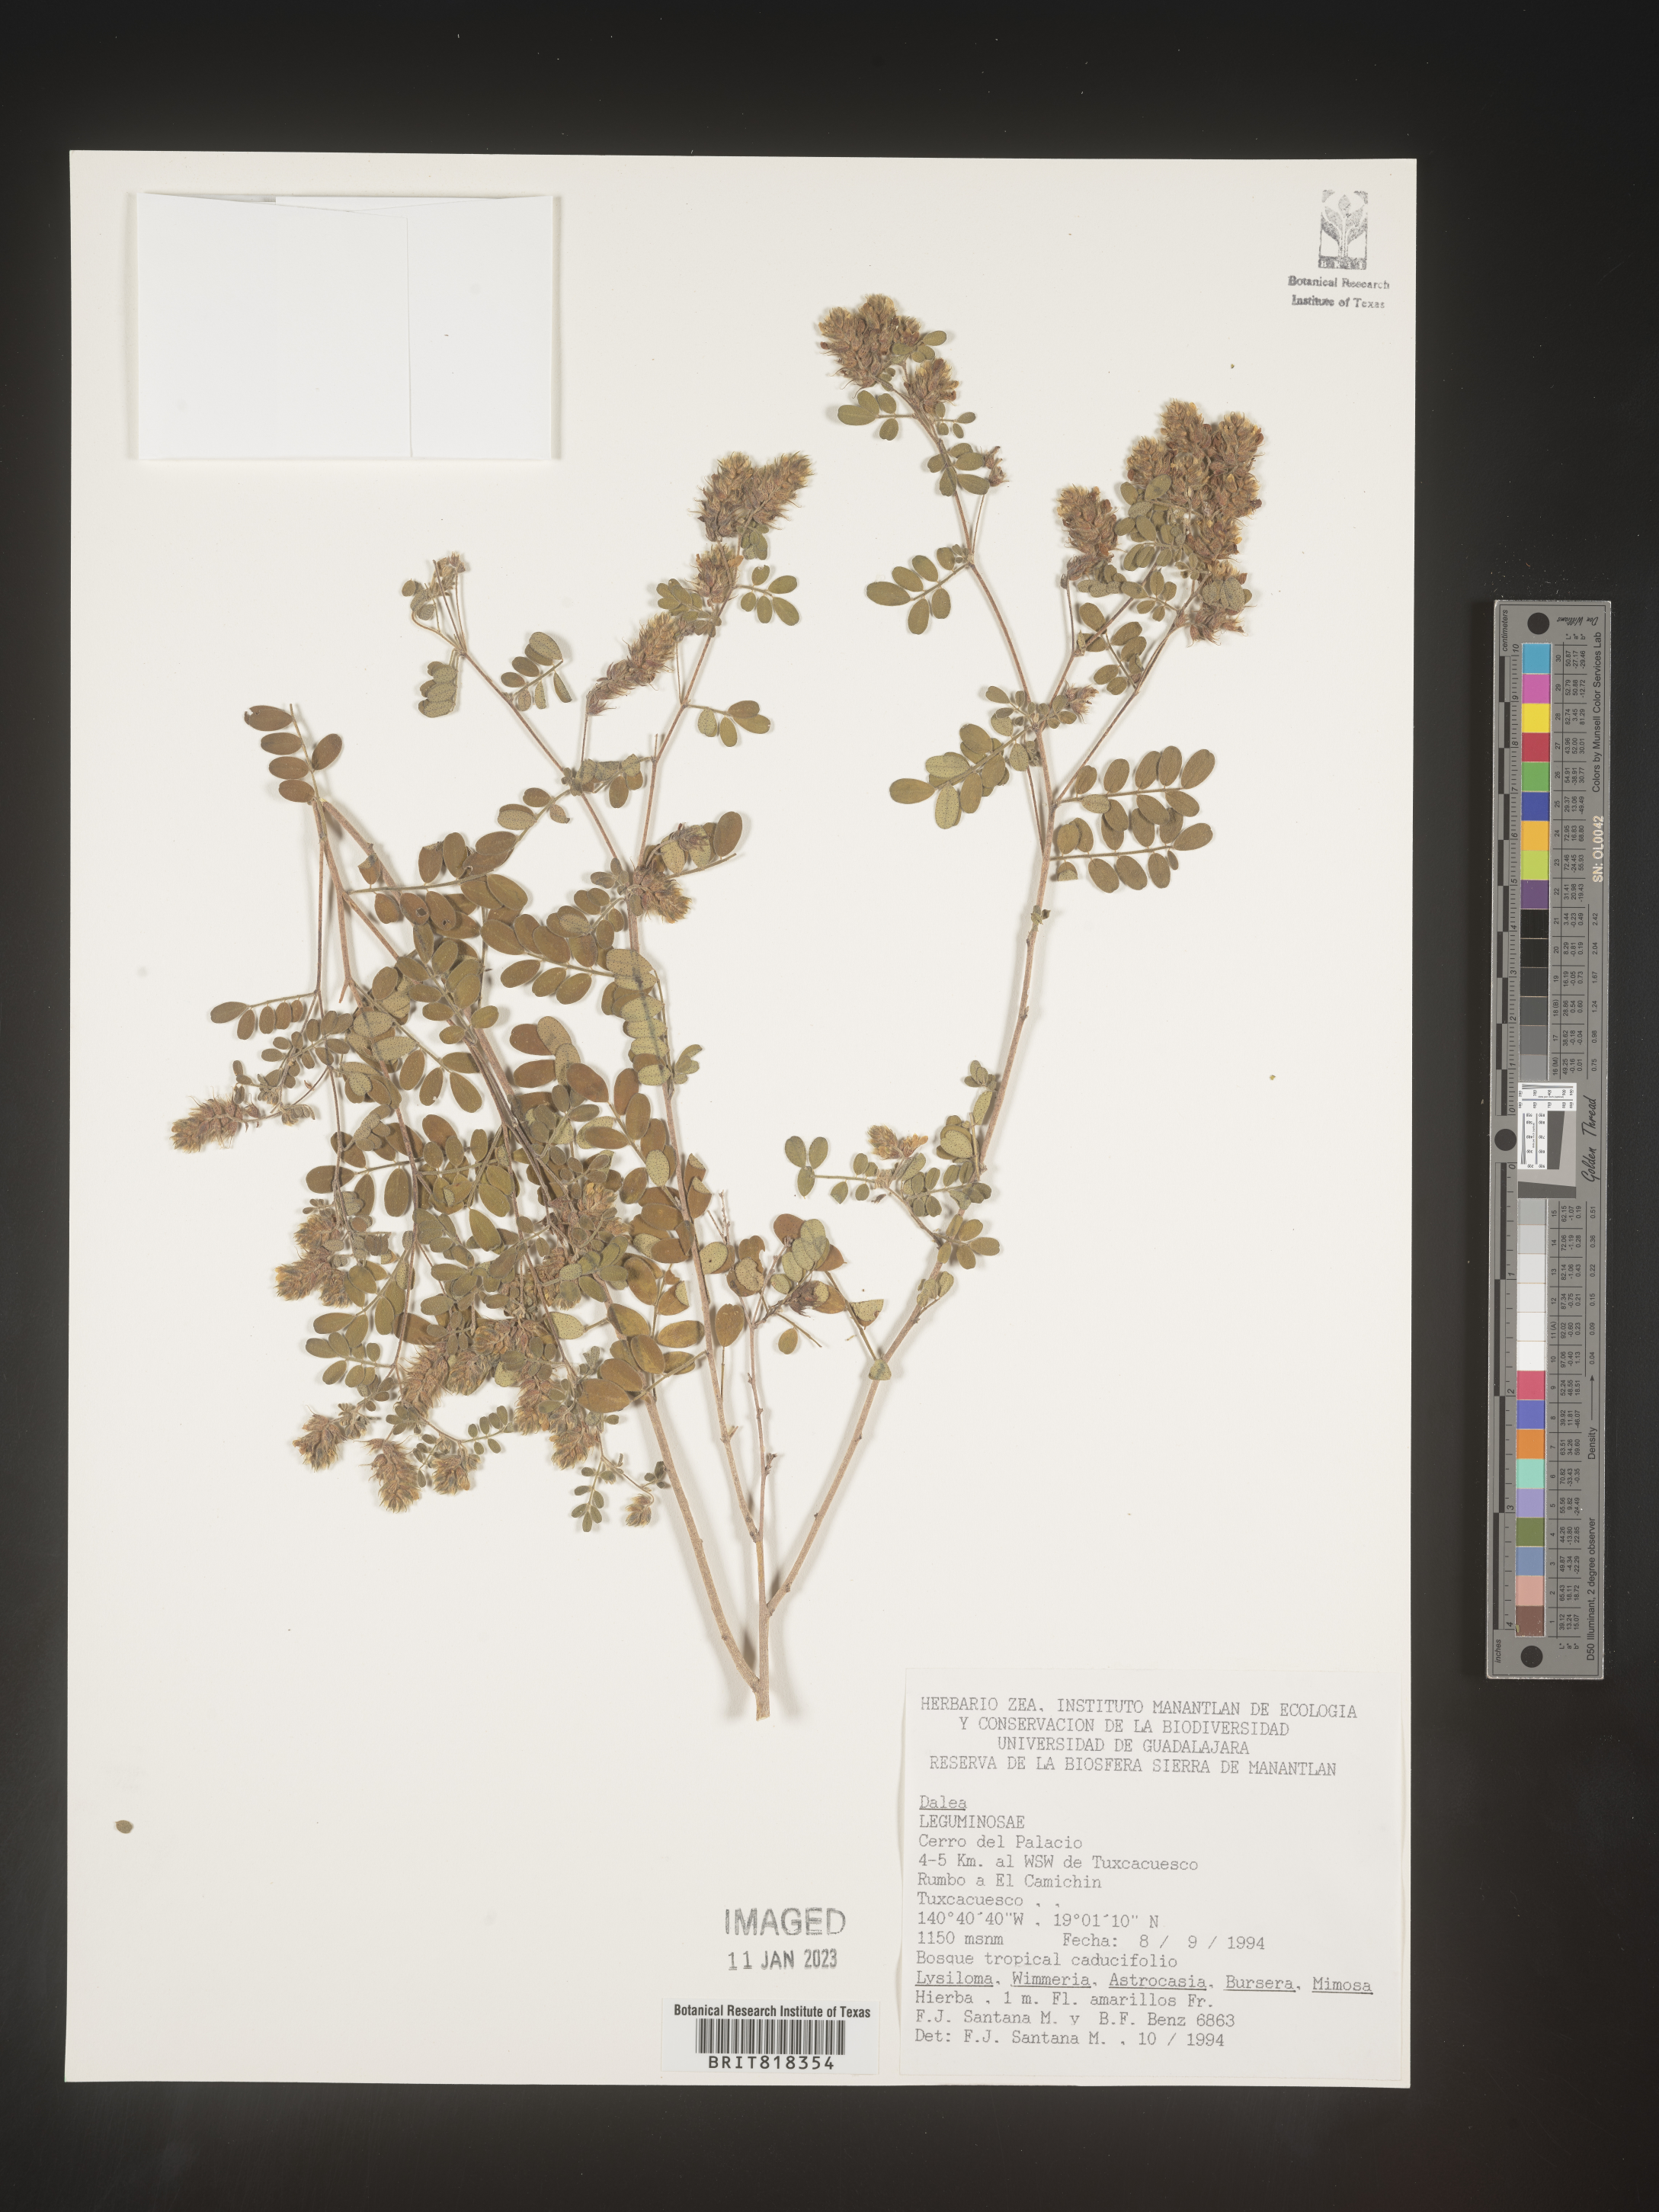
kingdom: Plantae
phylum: Tracheophyta
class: Magnoliopsida
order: Fabales
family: Fabaceae
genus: Dalea
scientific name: Dalea
